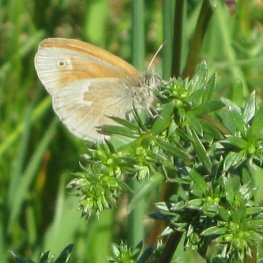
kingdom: Animalia
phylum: Arthropoda
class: Insecta
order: Lepidoptera
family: Nymphalidae
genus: Coenonympha
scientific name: Coenonympha tullia
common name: Large Heath
